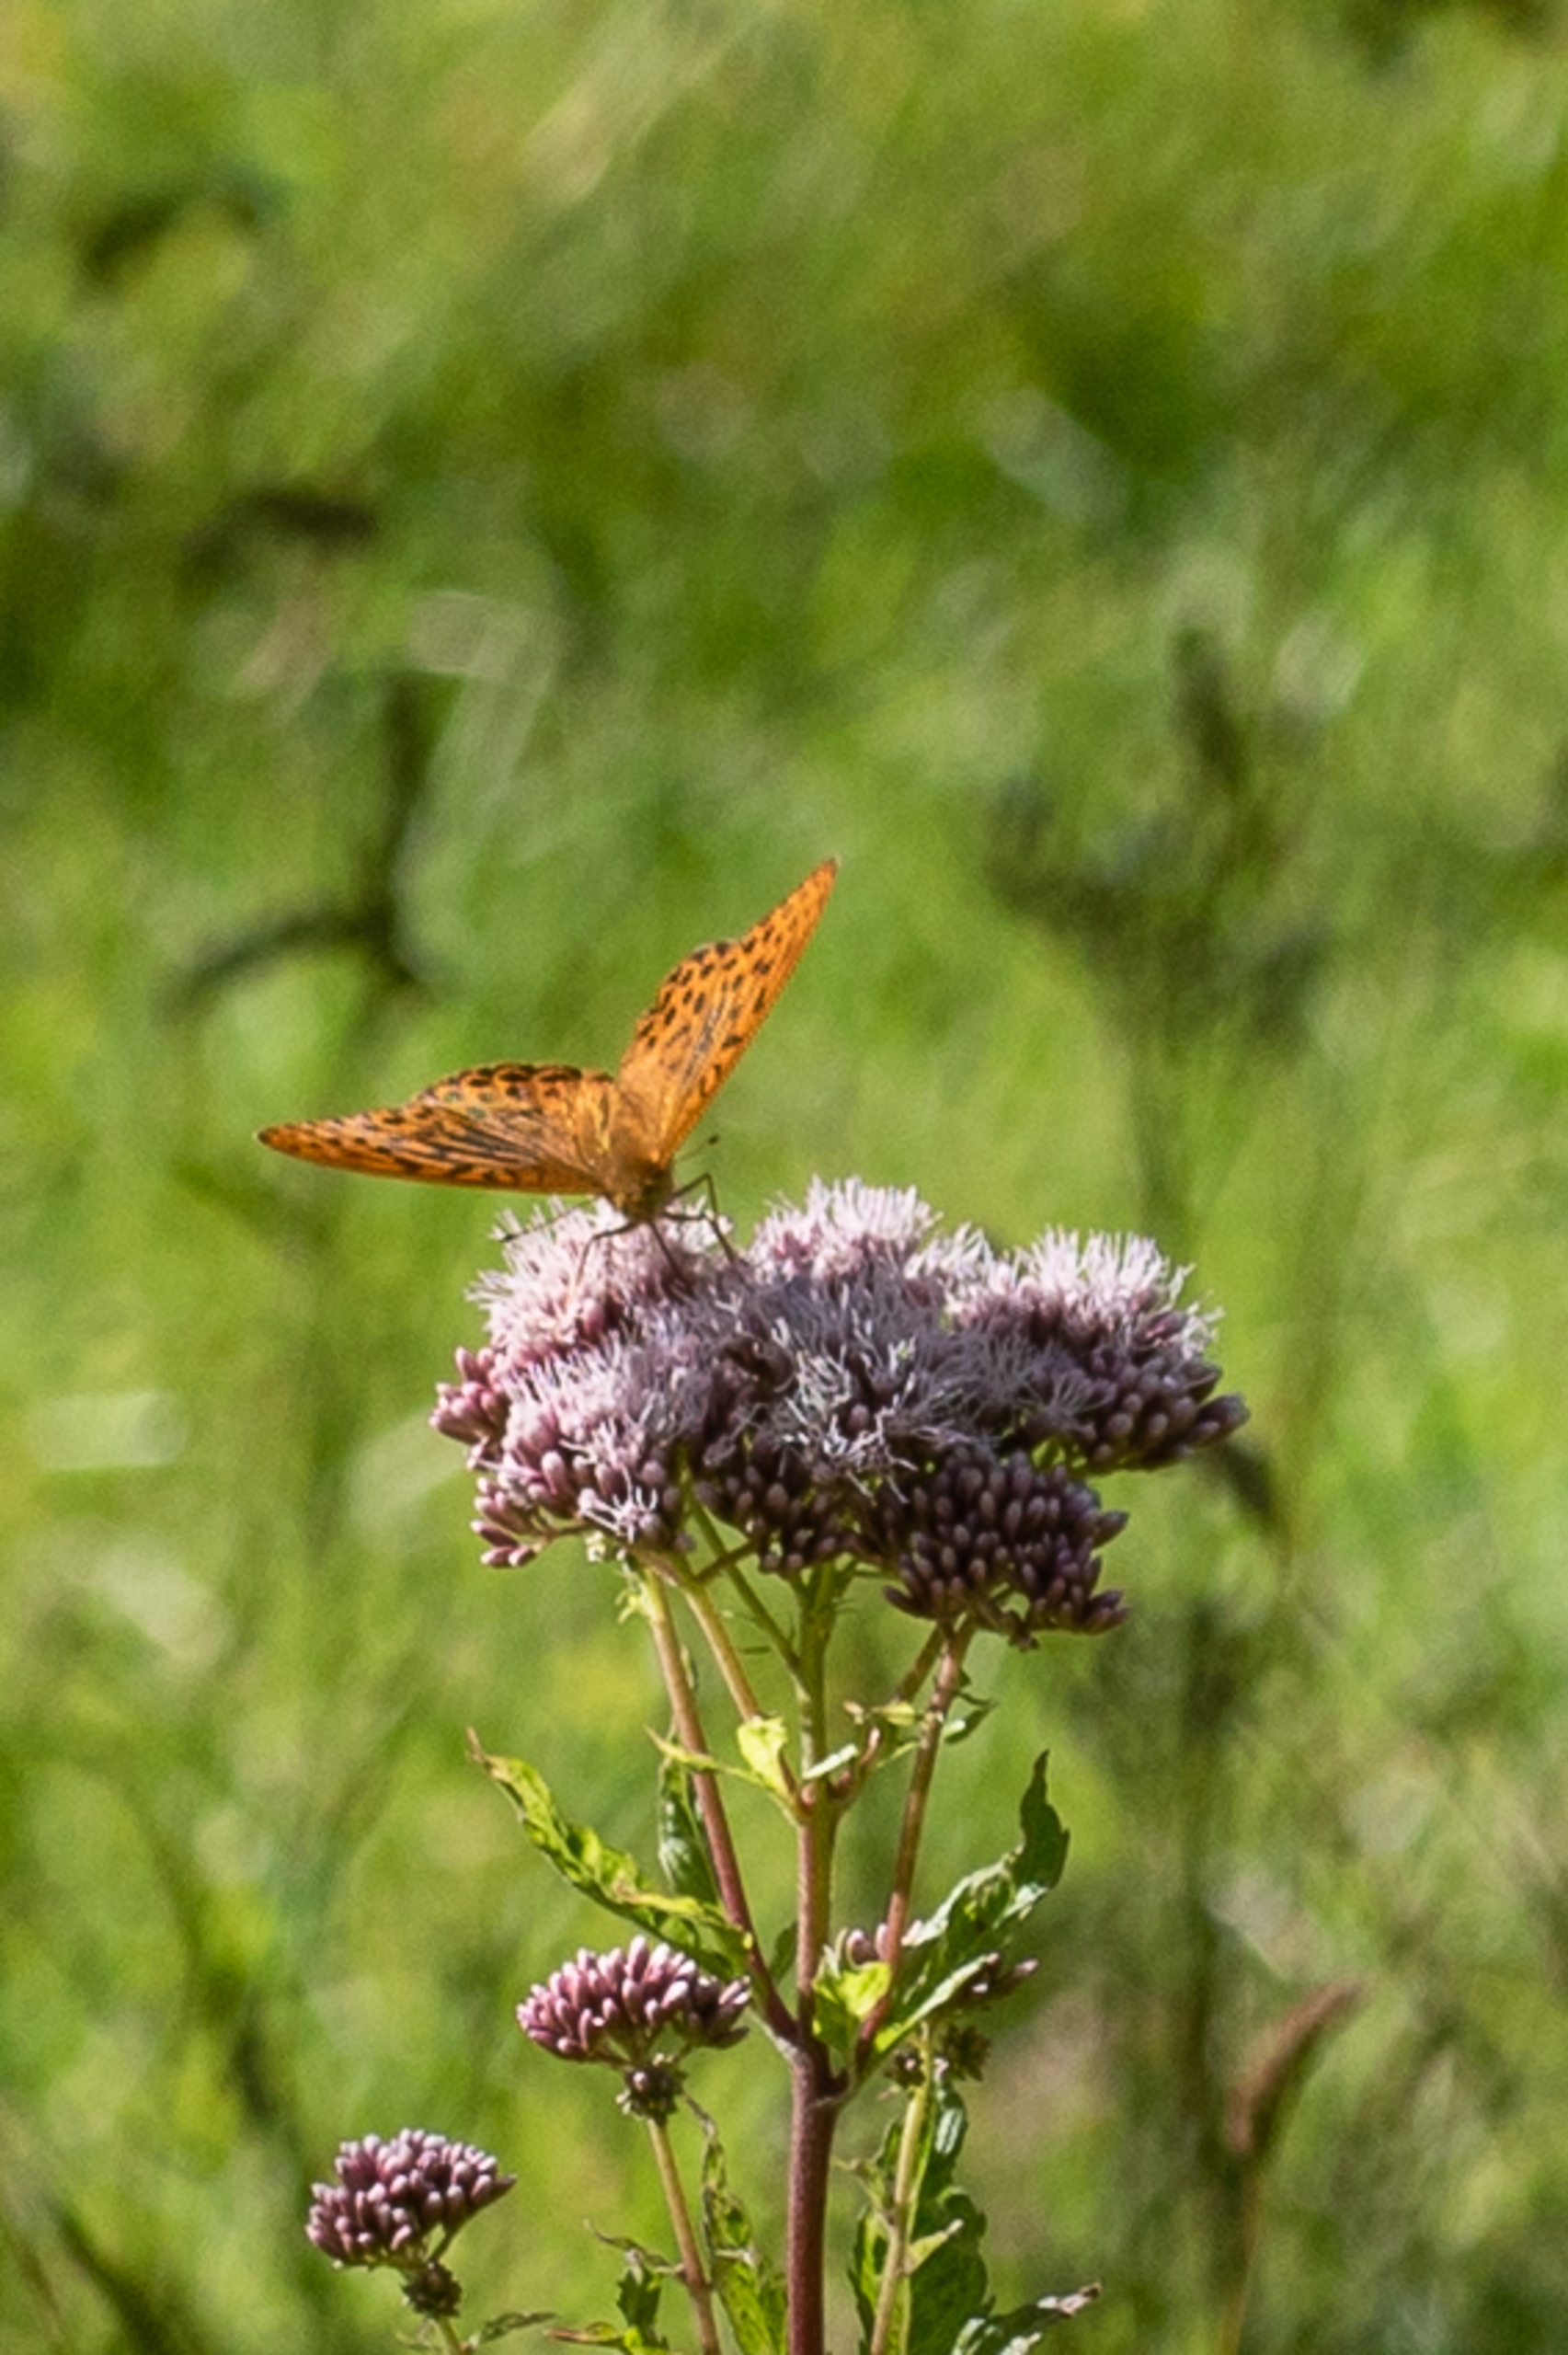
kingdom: Animalia
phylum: Arthropoda
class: Insecta
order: Lepidoptera
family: Nymphalidae
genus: Argynnis
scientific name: Argynnis paphia
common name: Kejserkåbe
